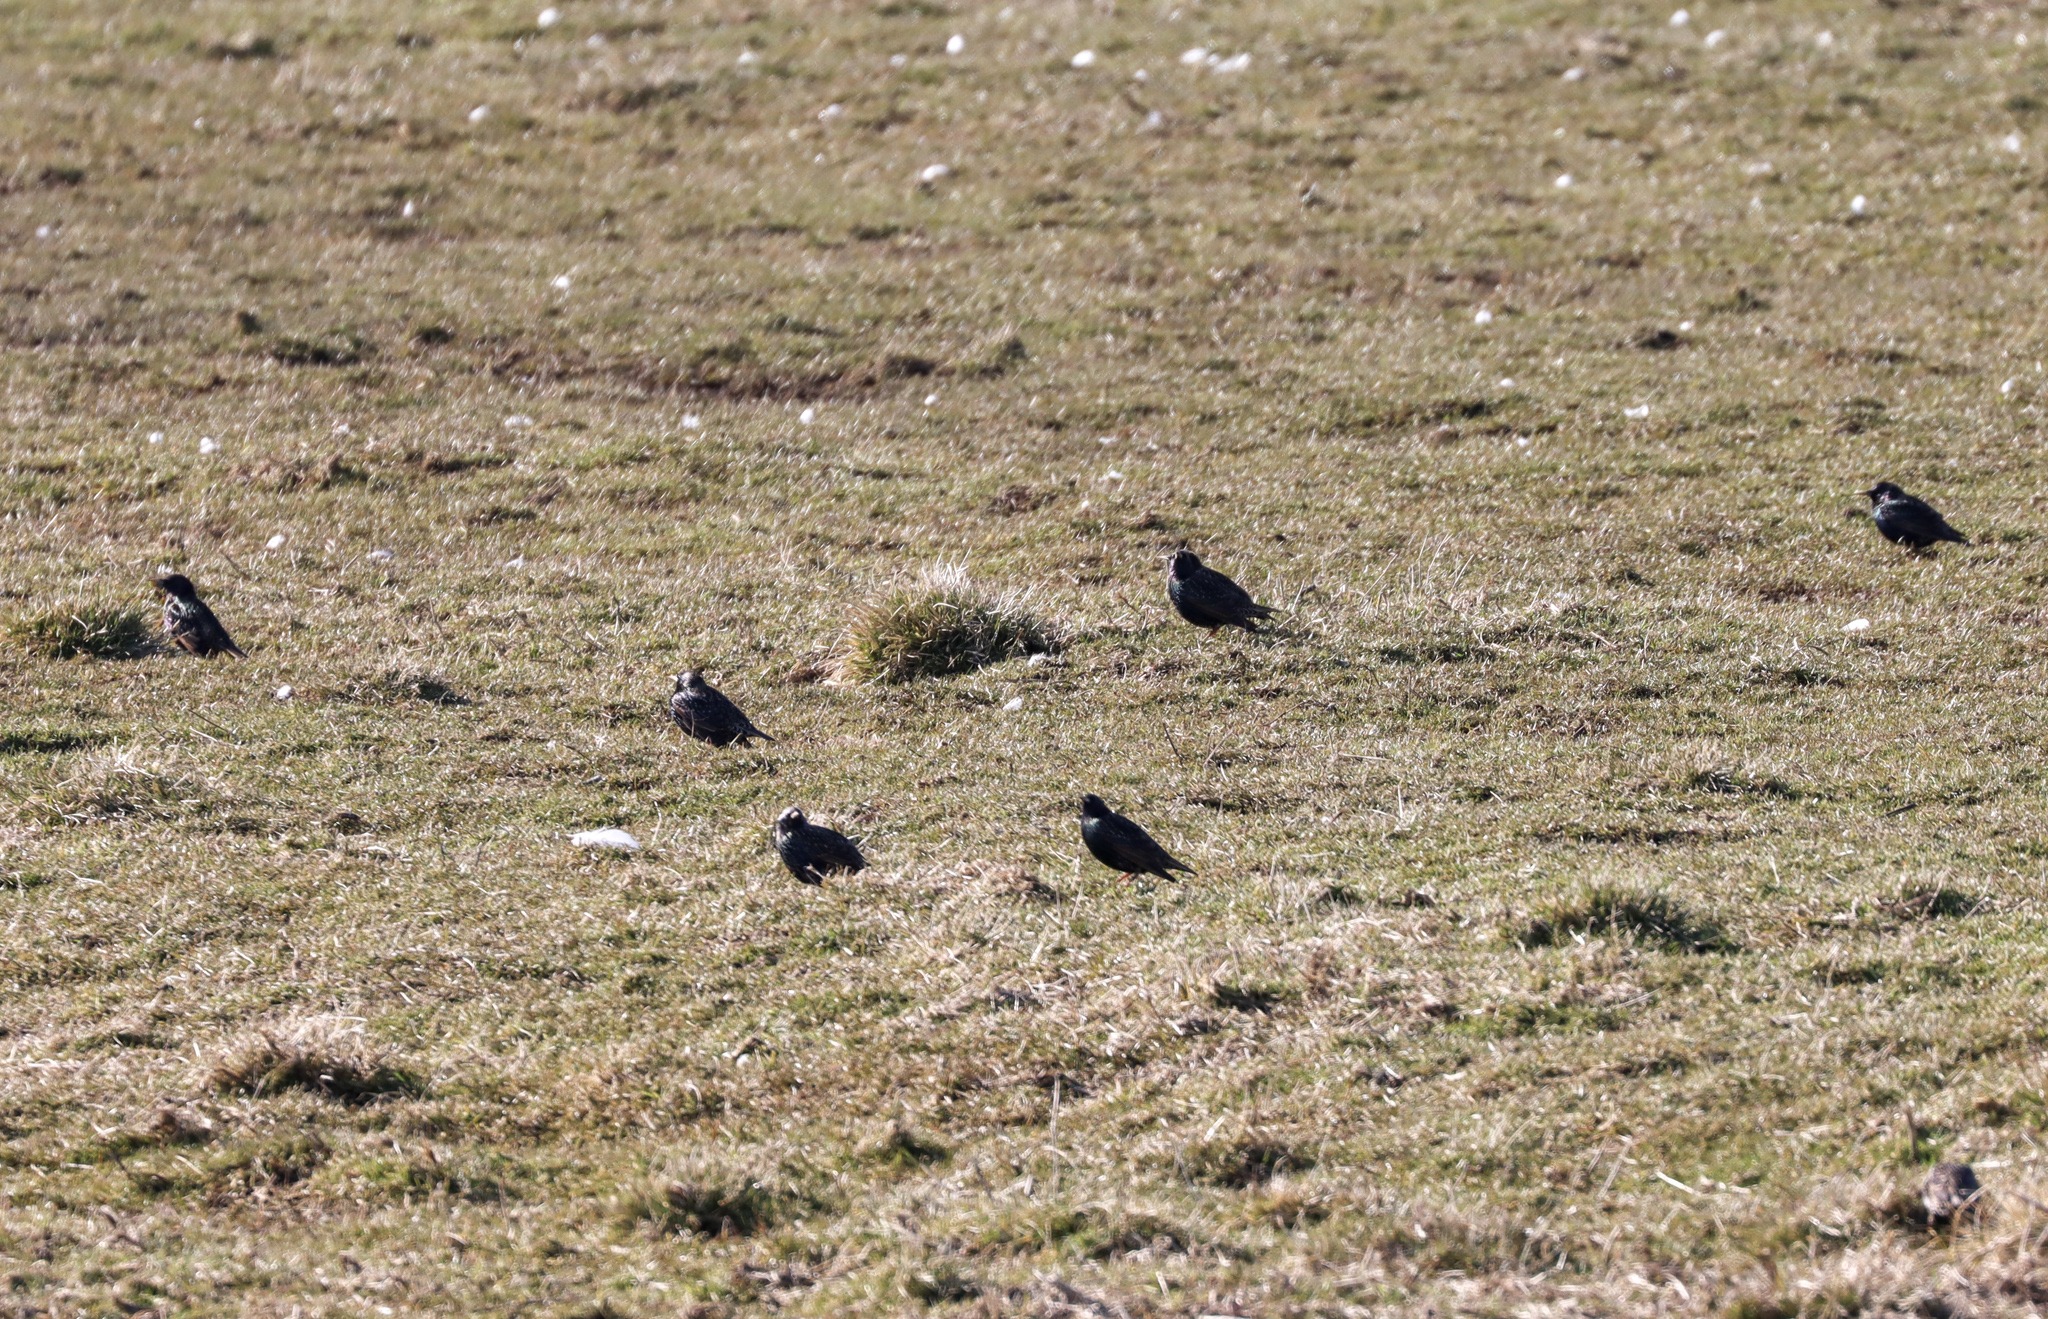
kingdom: Animalia
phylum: Chordata
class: Aves
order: Passeriformes
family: Sturnidae
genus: Sturnus
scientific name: Sturnus vulgaris
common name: Stær
